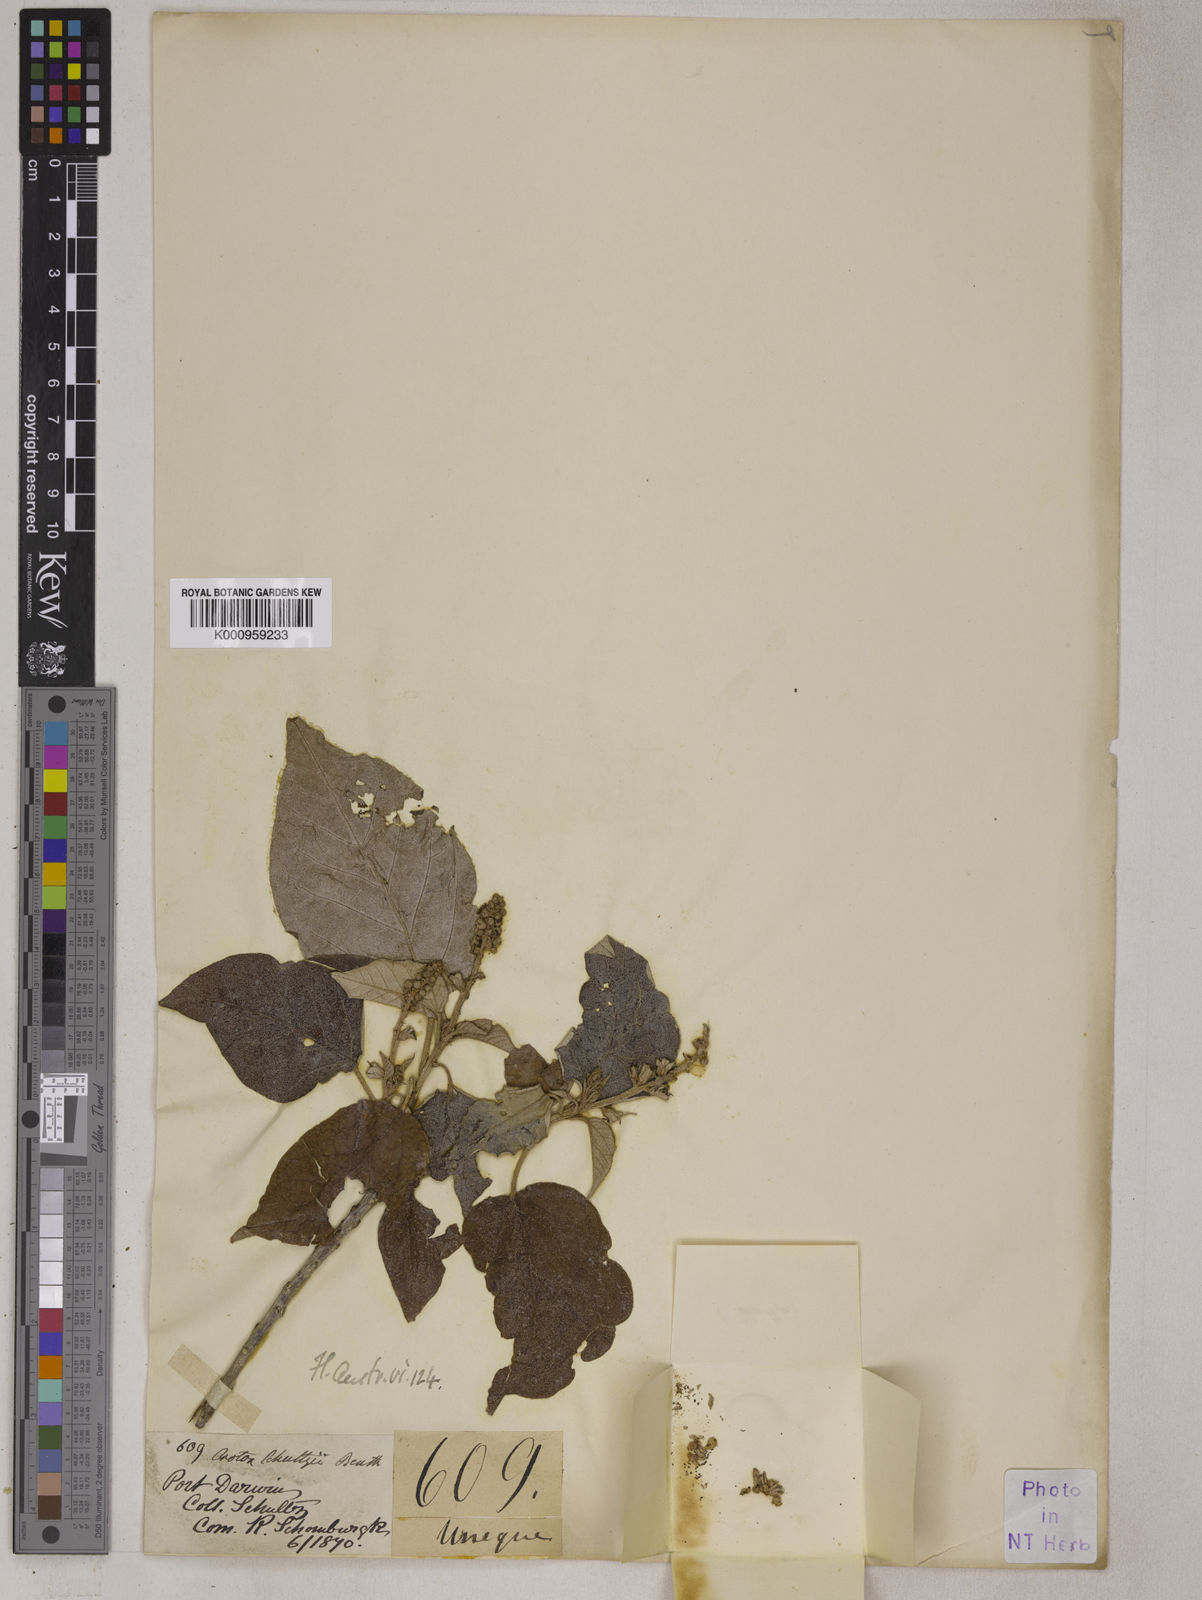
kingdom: Plantae
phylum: Tracheophyta
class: Magnoliopsida
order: Malpighiales
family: Euphorbiaceae
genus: Croton
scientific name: Croton argyratus
